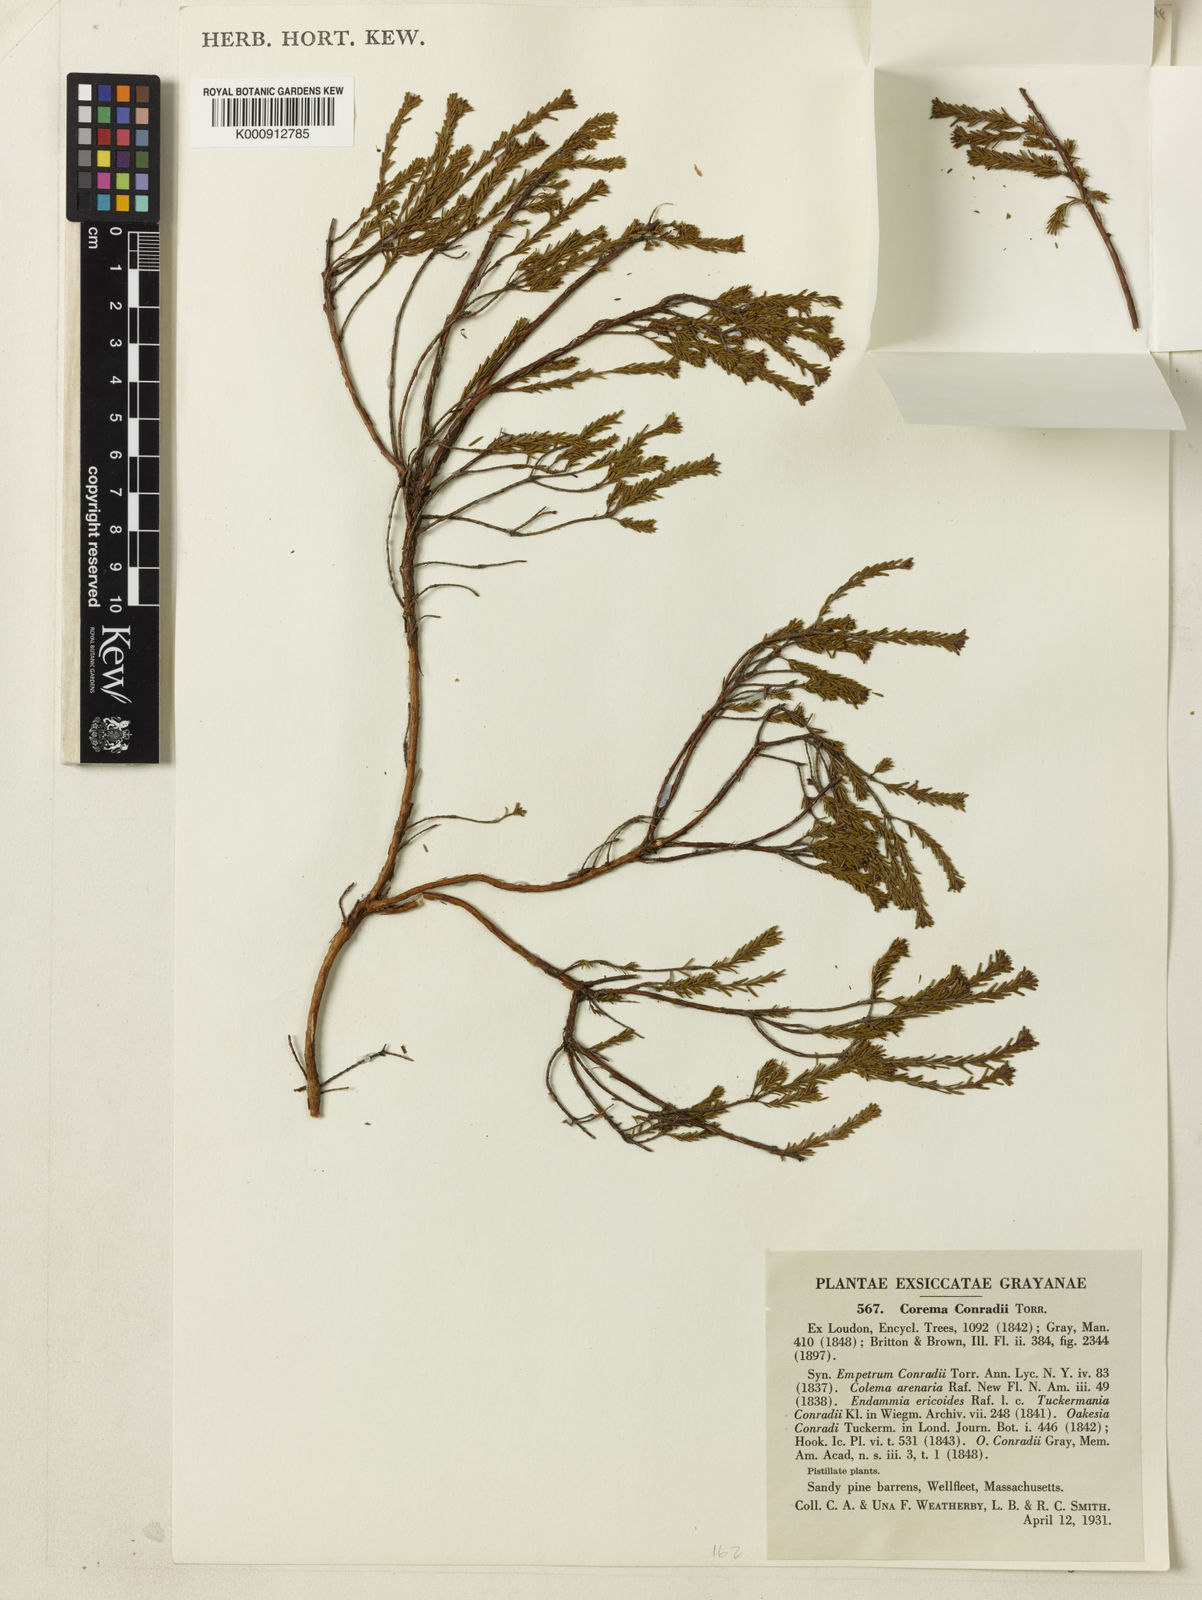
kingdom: Plantae
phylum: Tracheophyta
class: Magnoliopsida
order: Ericales
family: Ericaceae
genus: Corema
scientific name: Corema
